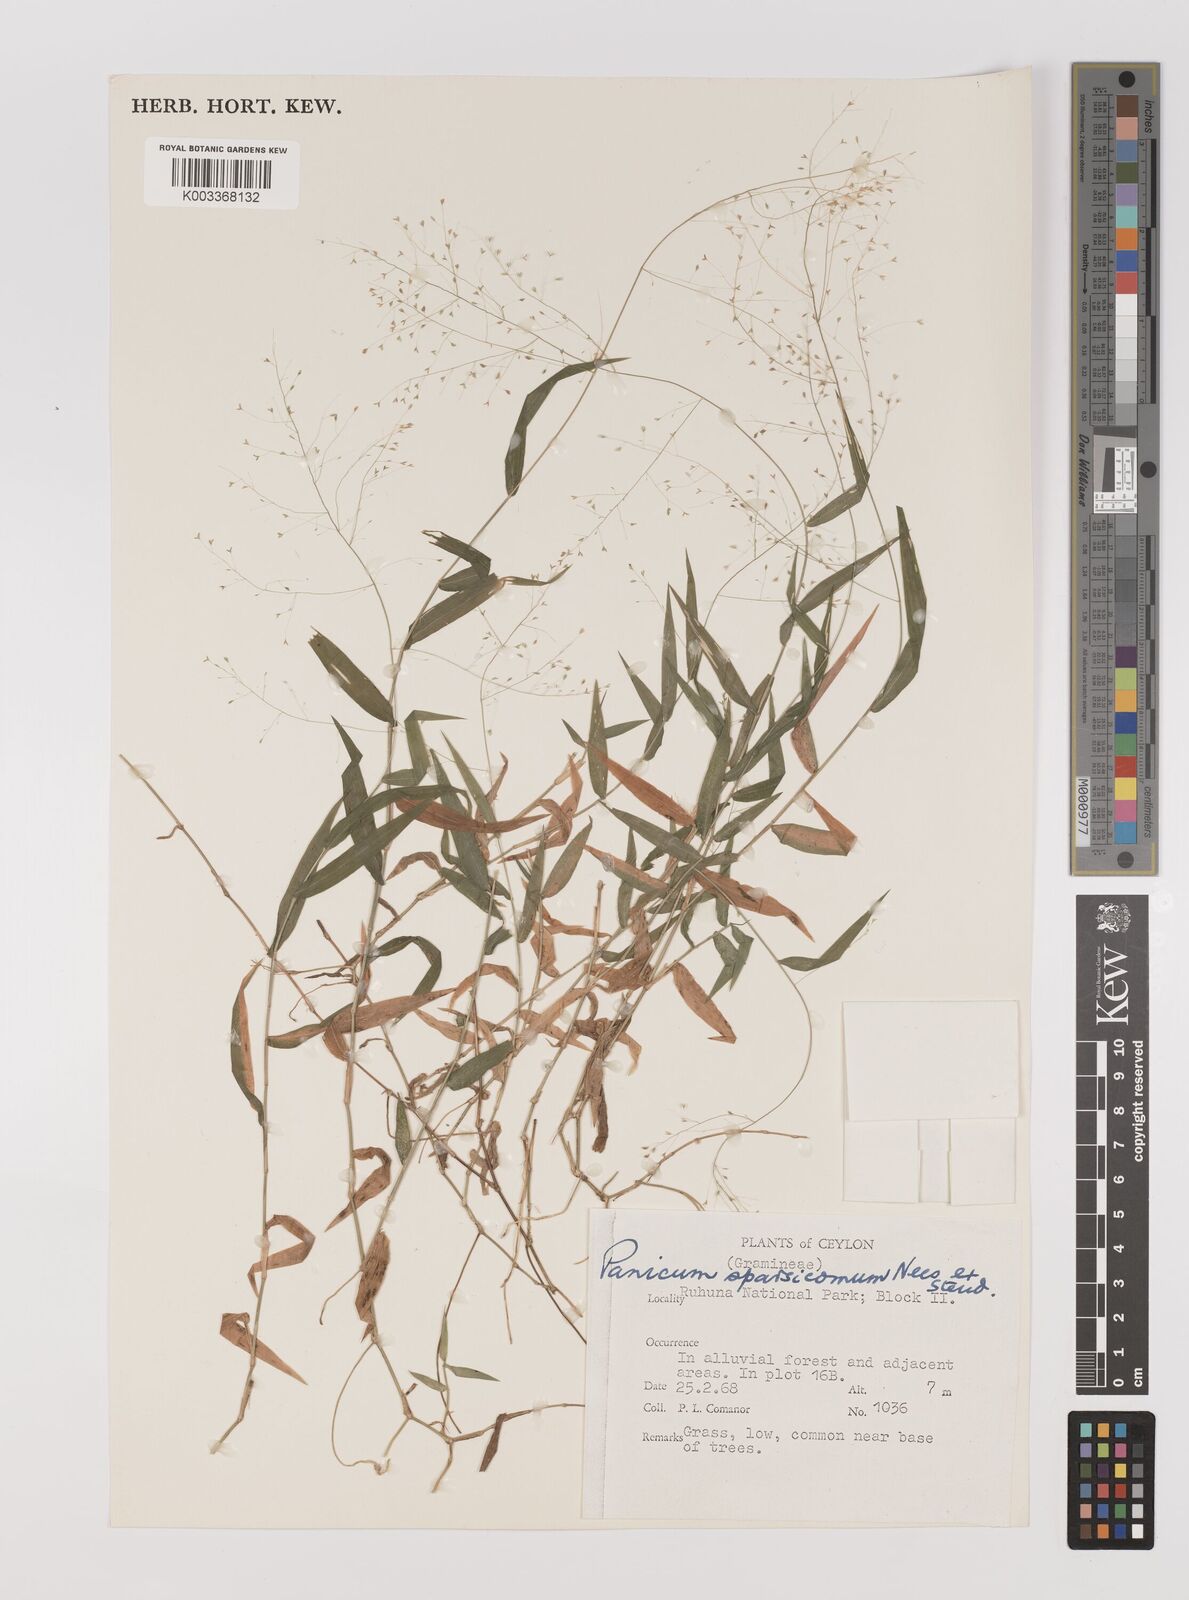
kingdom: Plantae
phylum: Tracheophyta
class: Liliopsida
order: Poales
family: Poaceae
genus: Panicum
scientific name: Panicum sparsicomum
